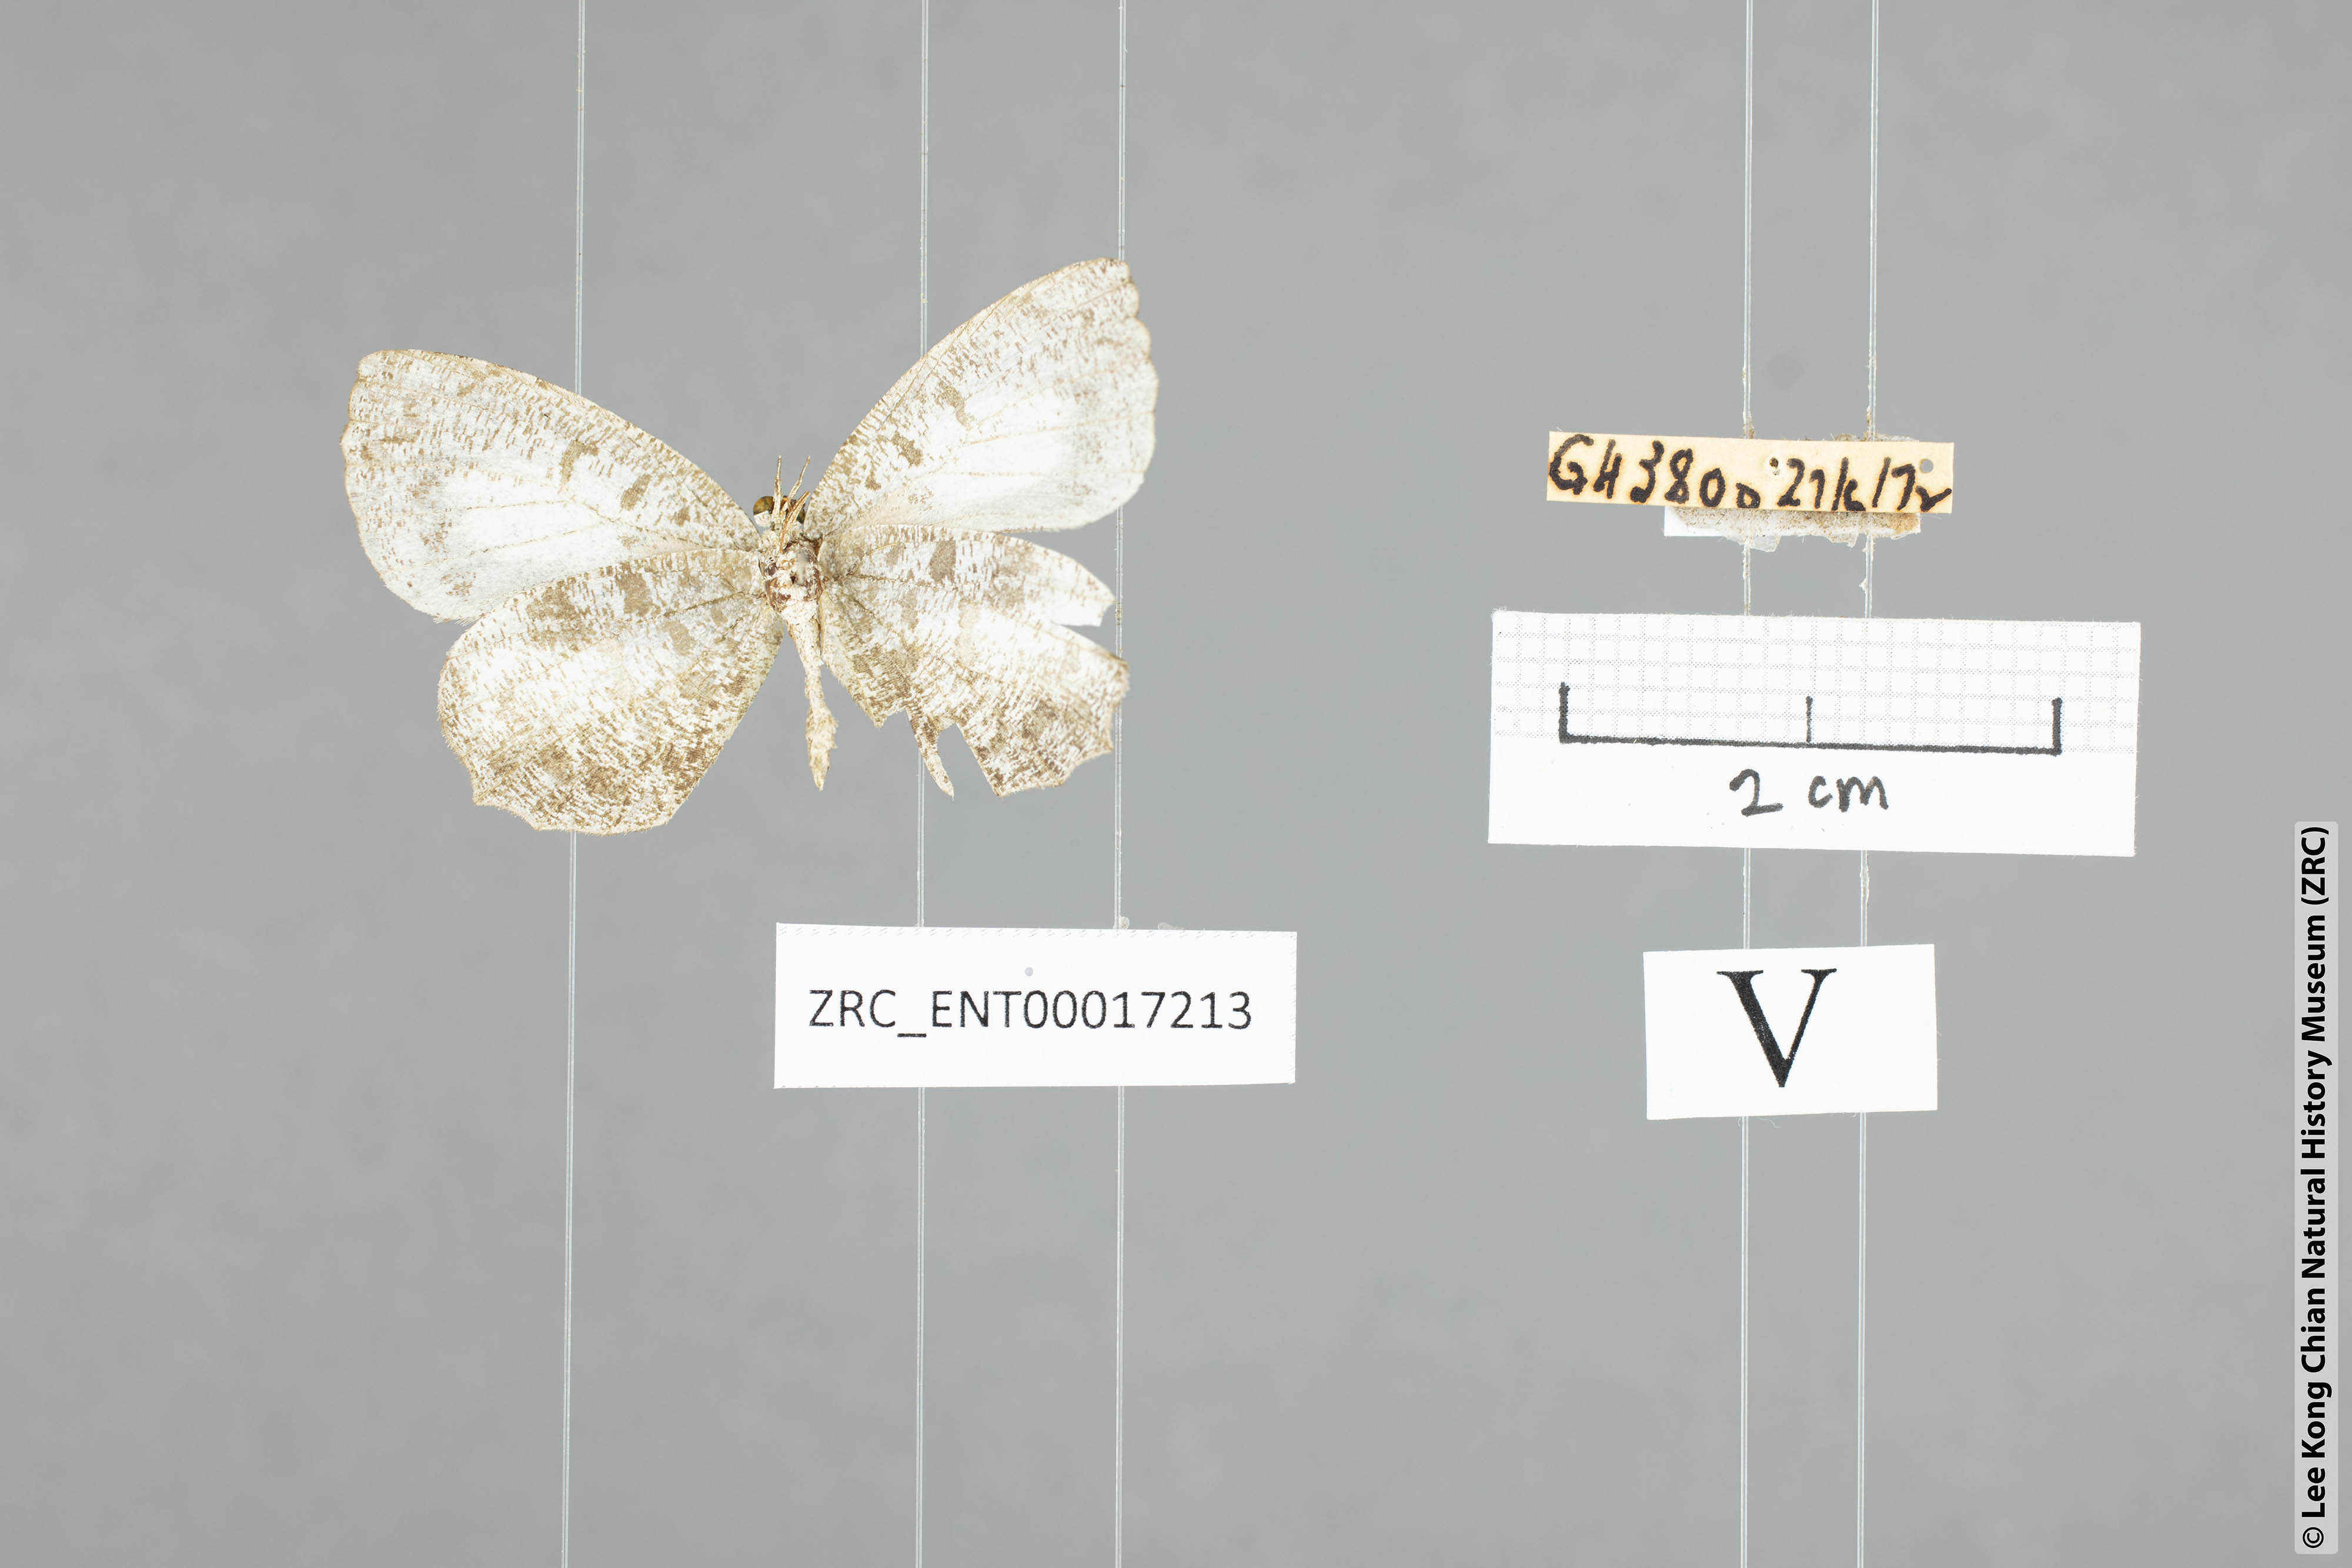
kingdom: Animalia
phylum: Arthropoda
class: Insecta
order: Lepidoptera
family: Lycaenidae
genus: Allotinus
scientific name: Allotinus
